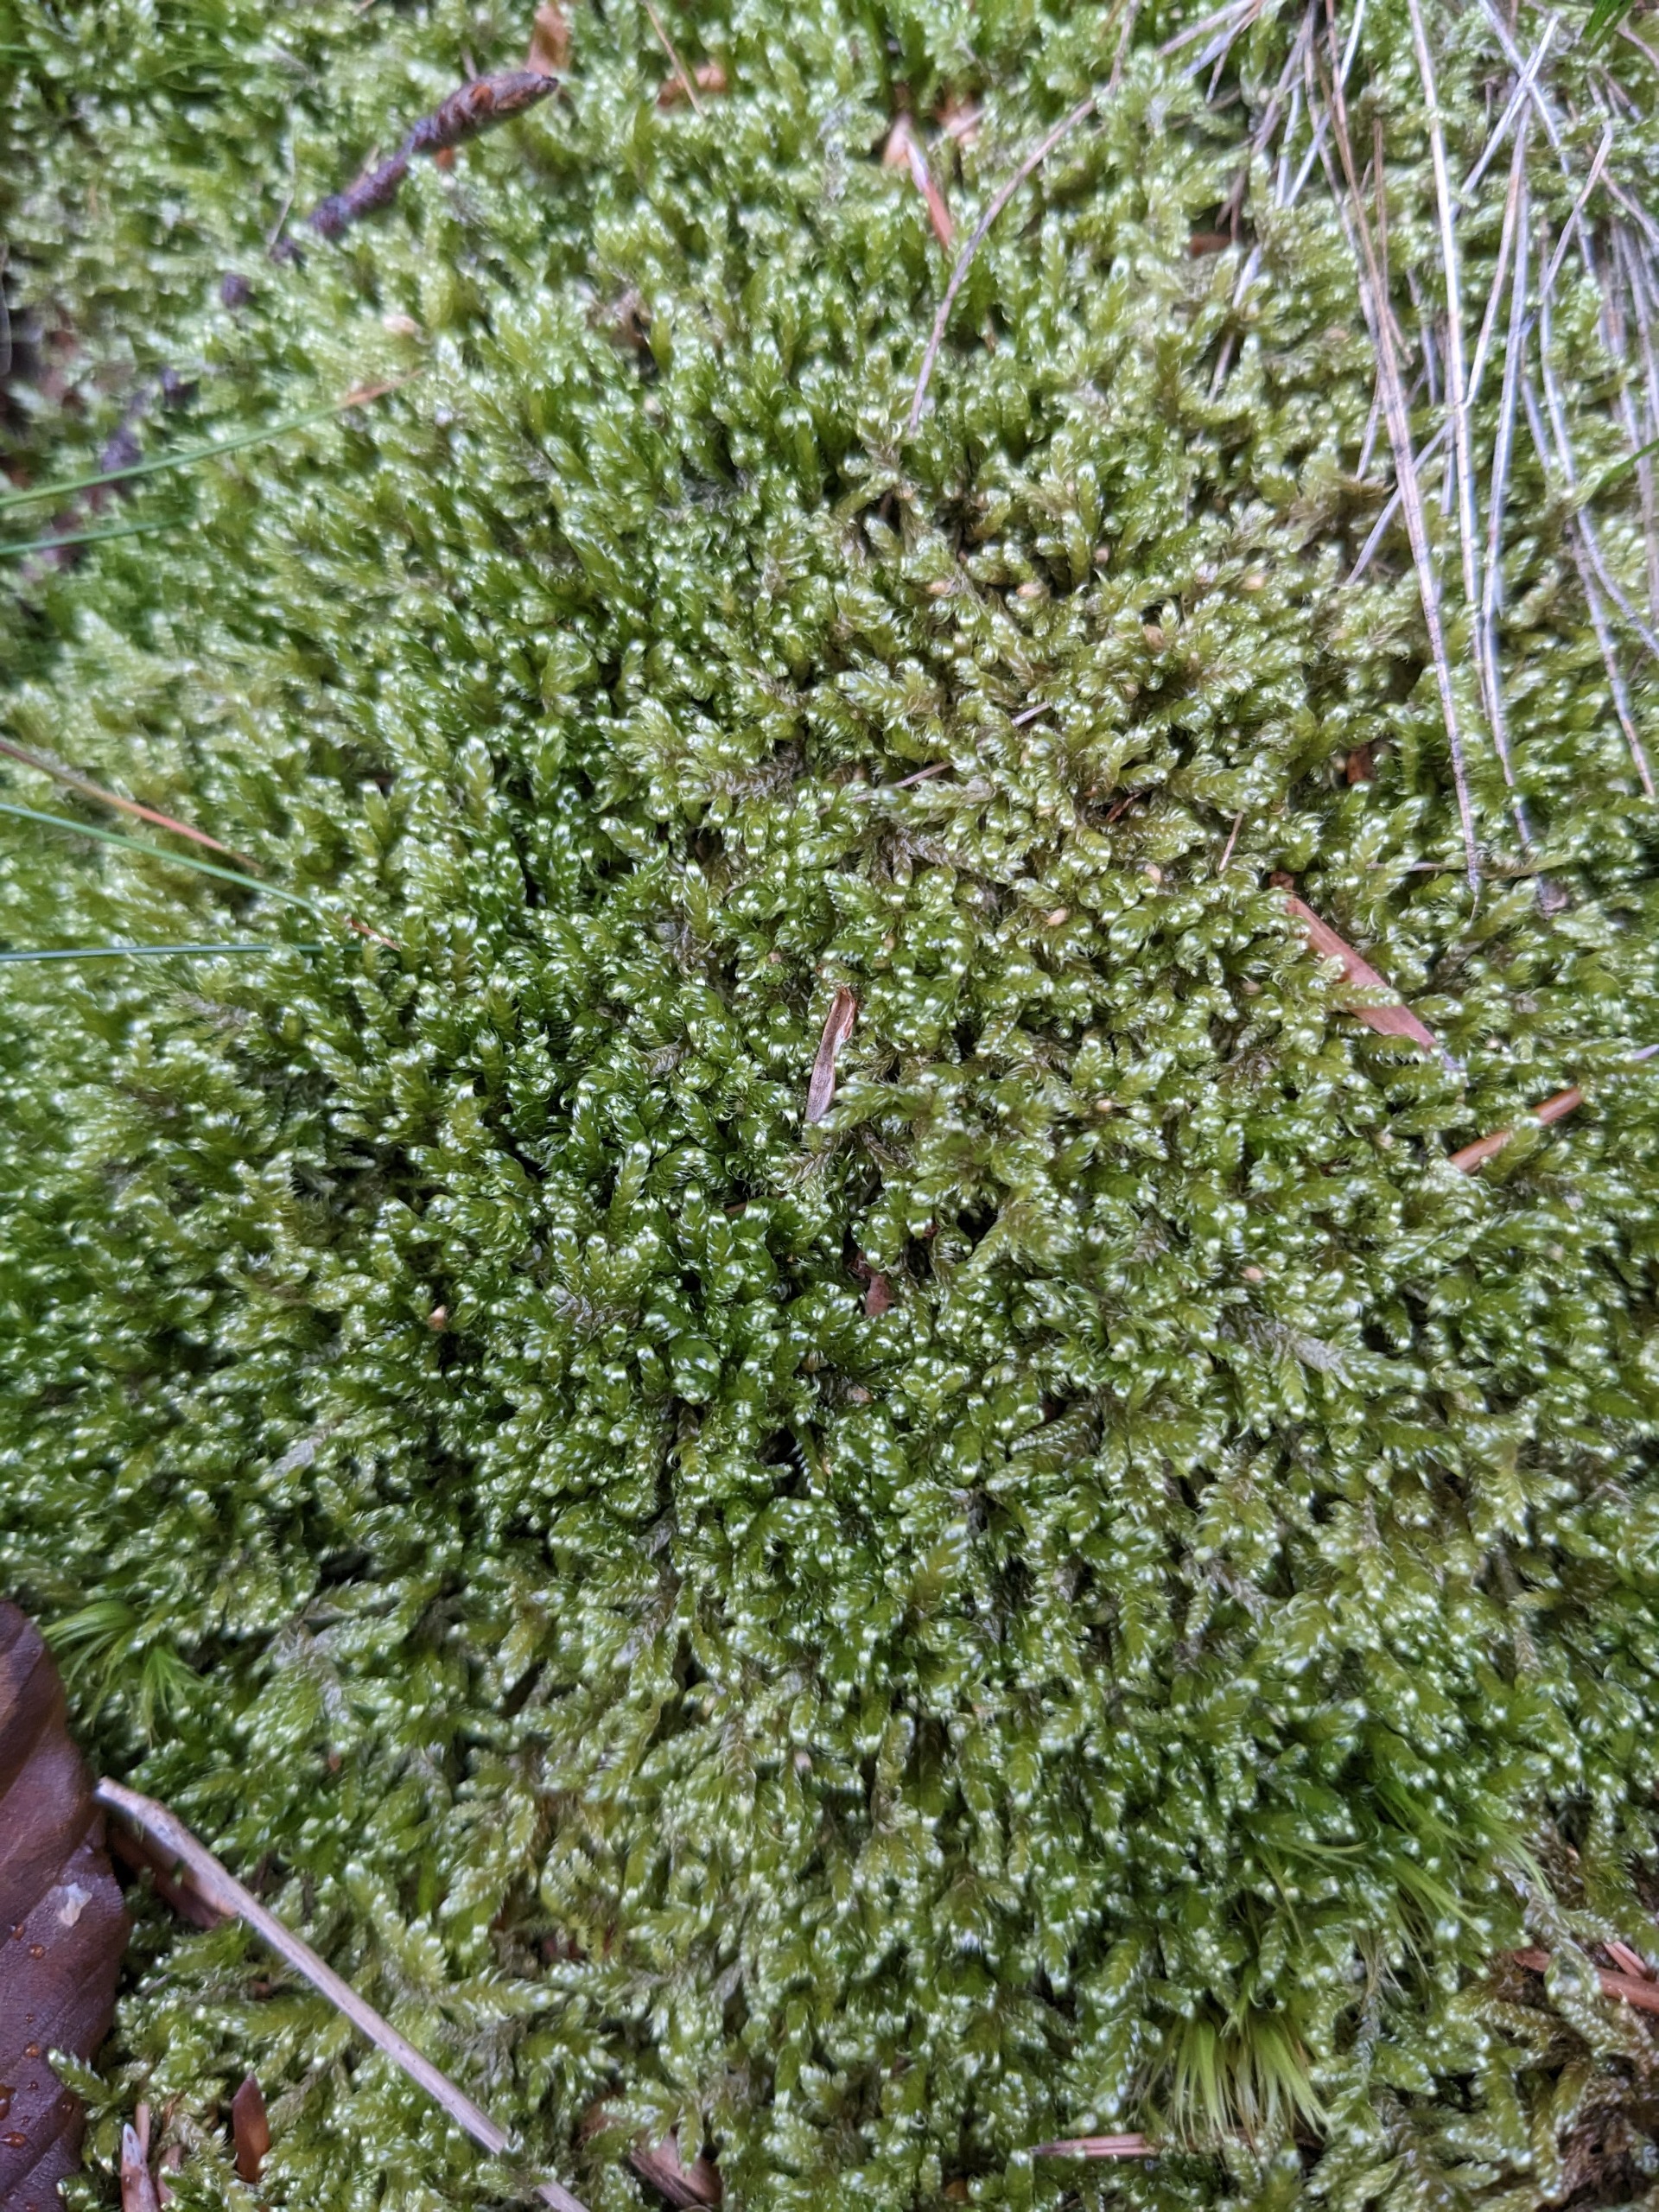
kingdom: Plantae
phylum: Bryophyta
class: Bryopsida
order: Hypnales
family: Hypnaceae
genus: Hypnum
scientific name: Hypnum jutlandicum
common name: Hede-cypresmos
